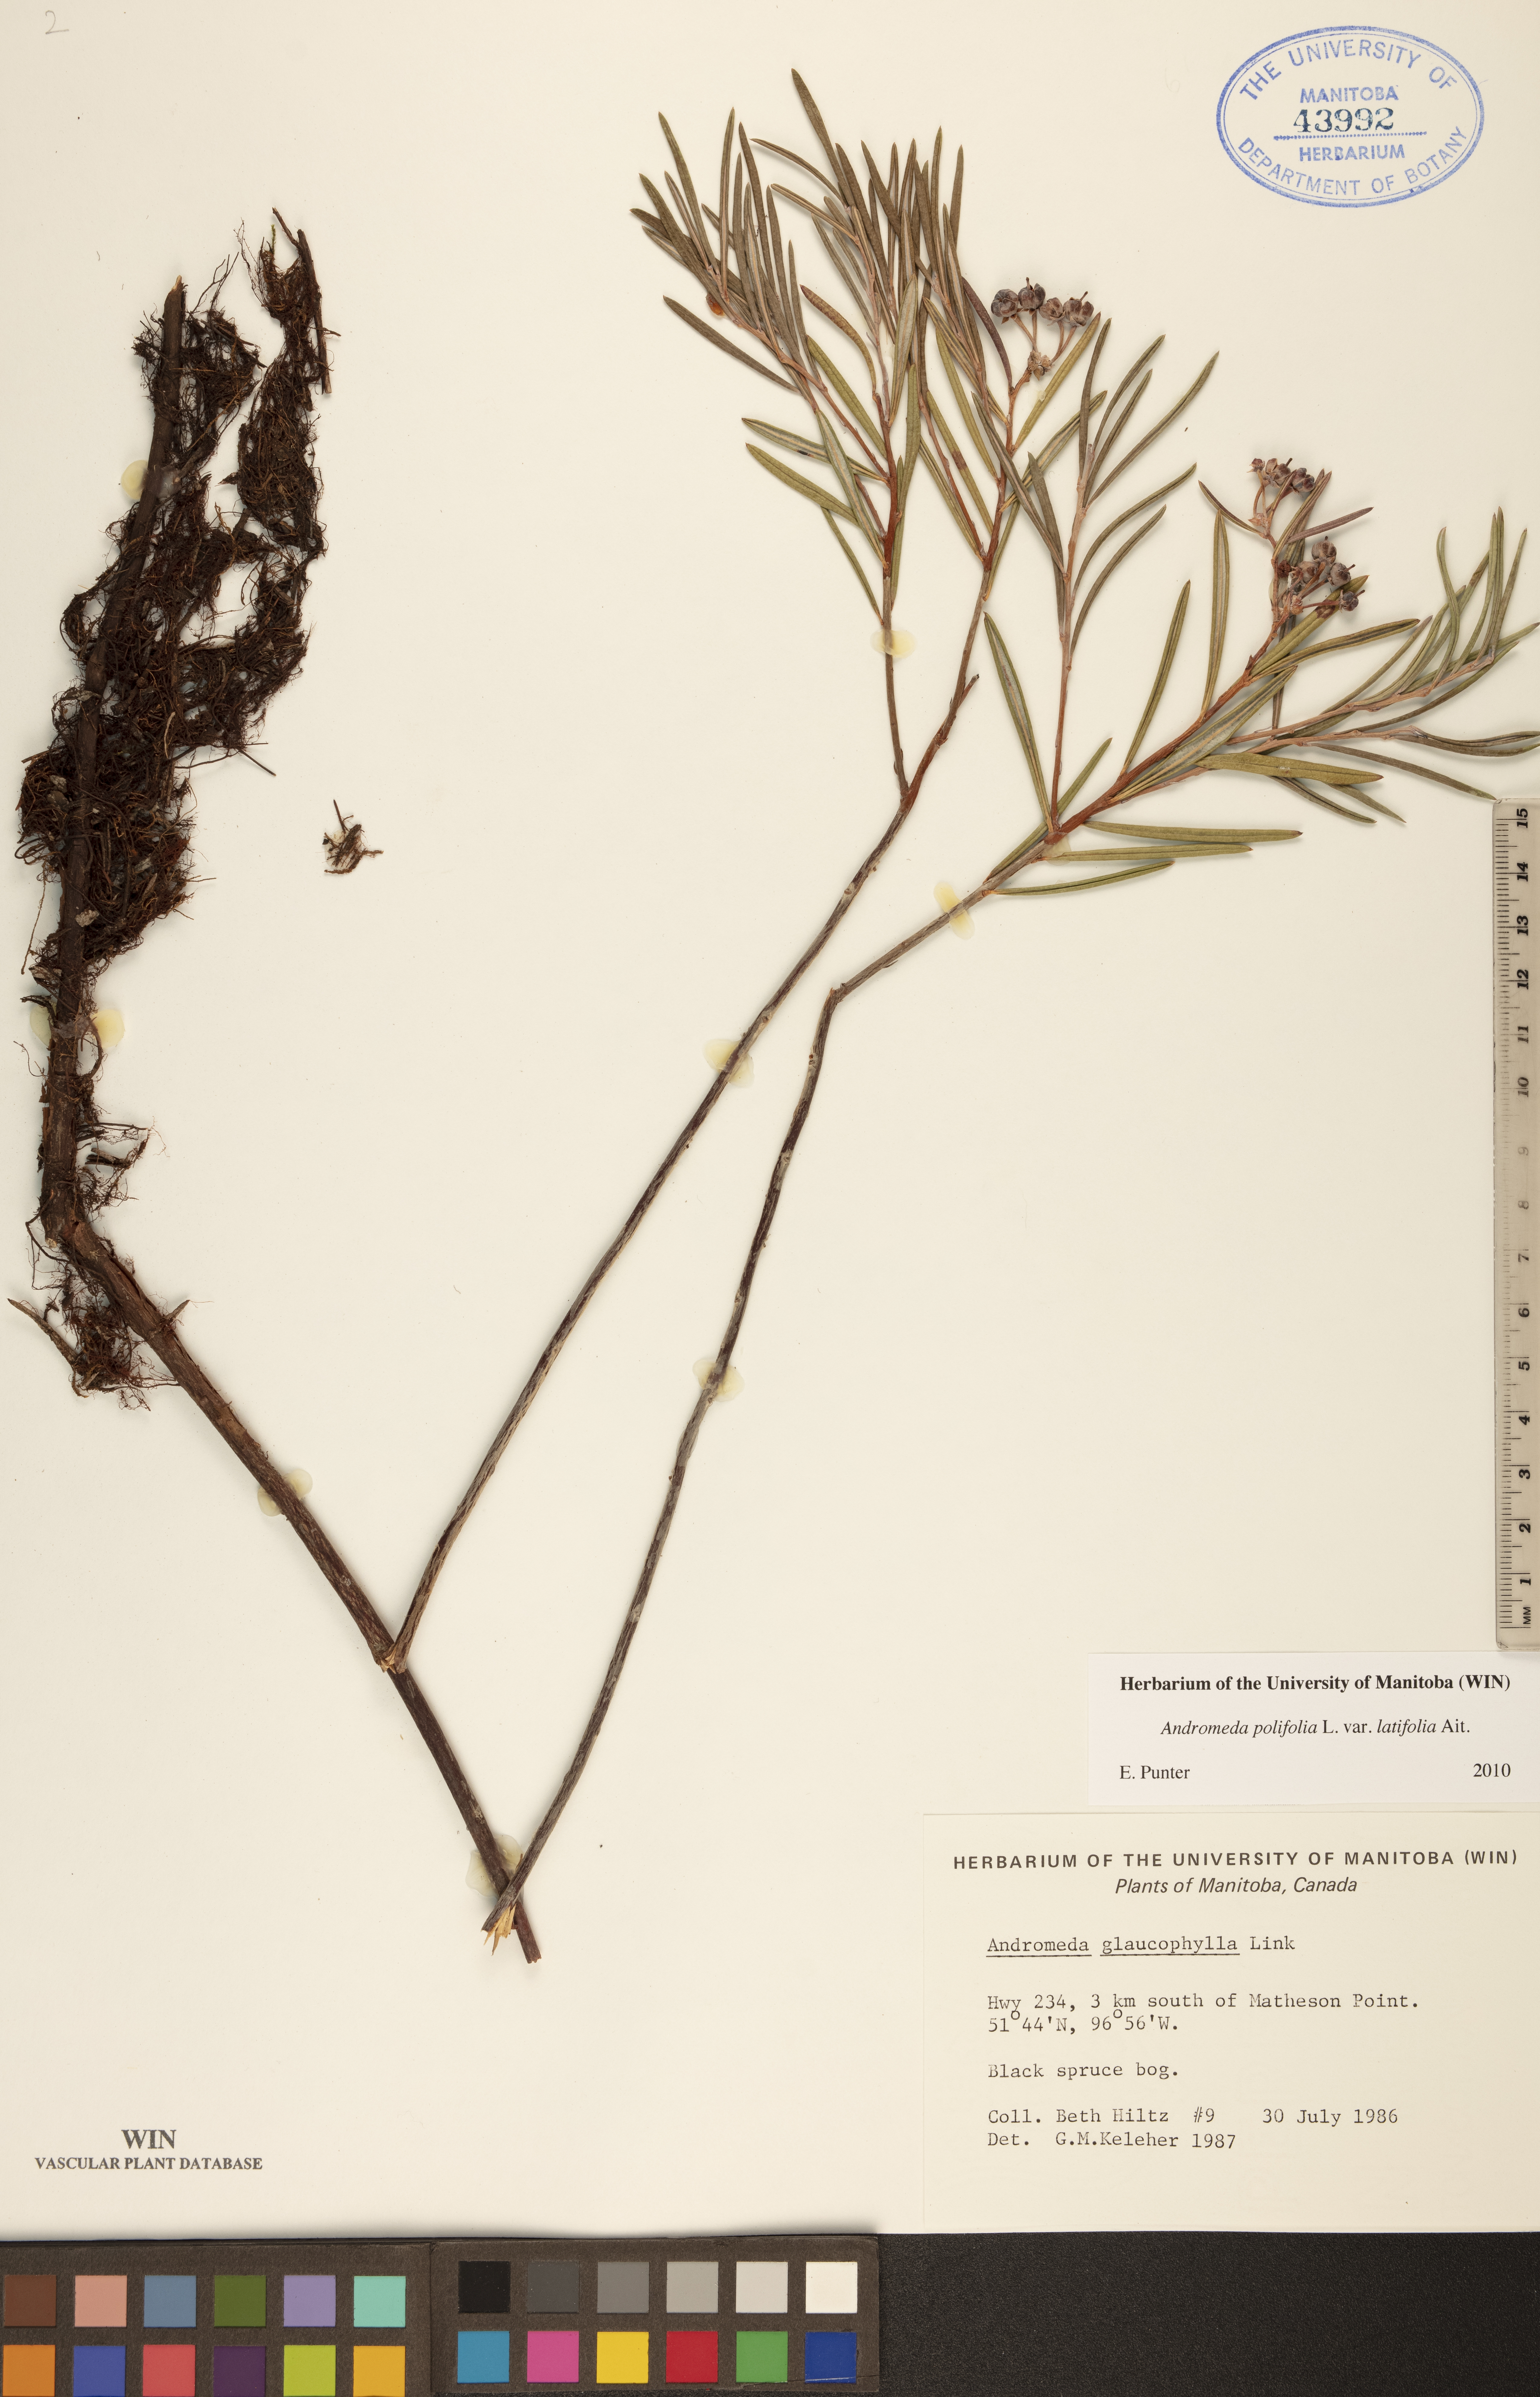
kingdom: Plantae
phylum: Tracheophyta
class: Magnoliopsida
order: Ericales
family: Ericaceae
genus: Andromeda
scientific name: Andromeda polifolia
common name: Bog-rosemary
